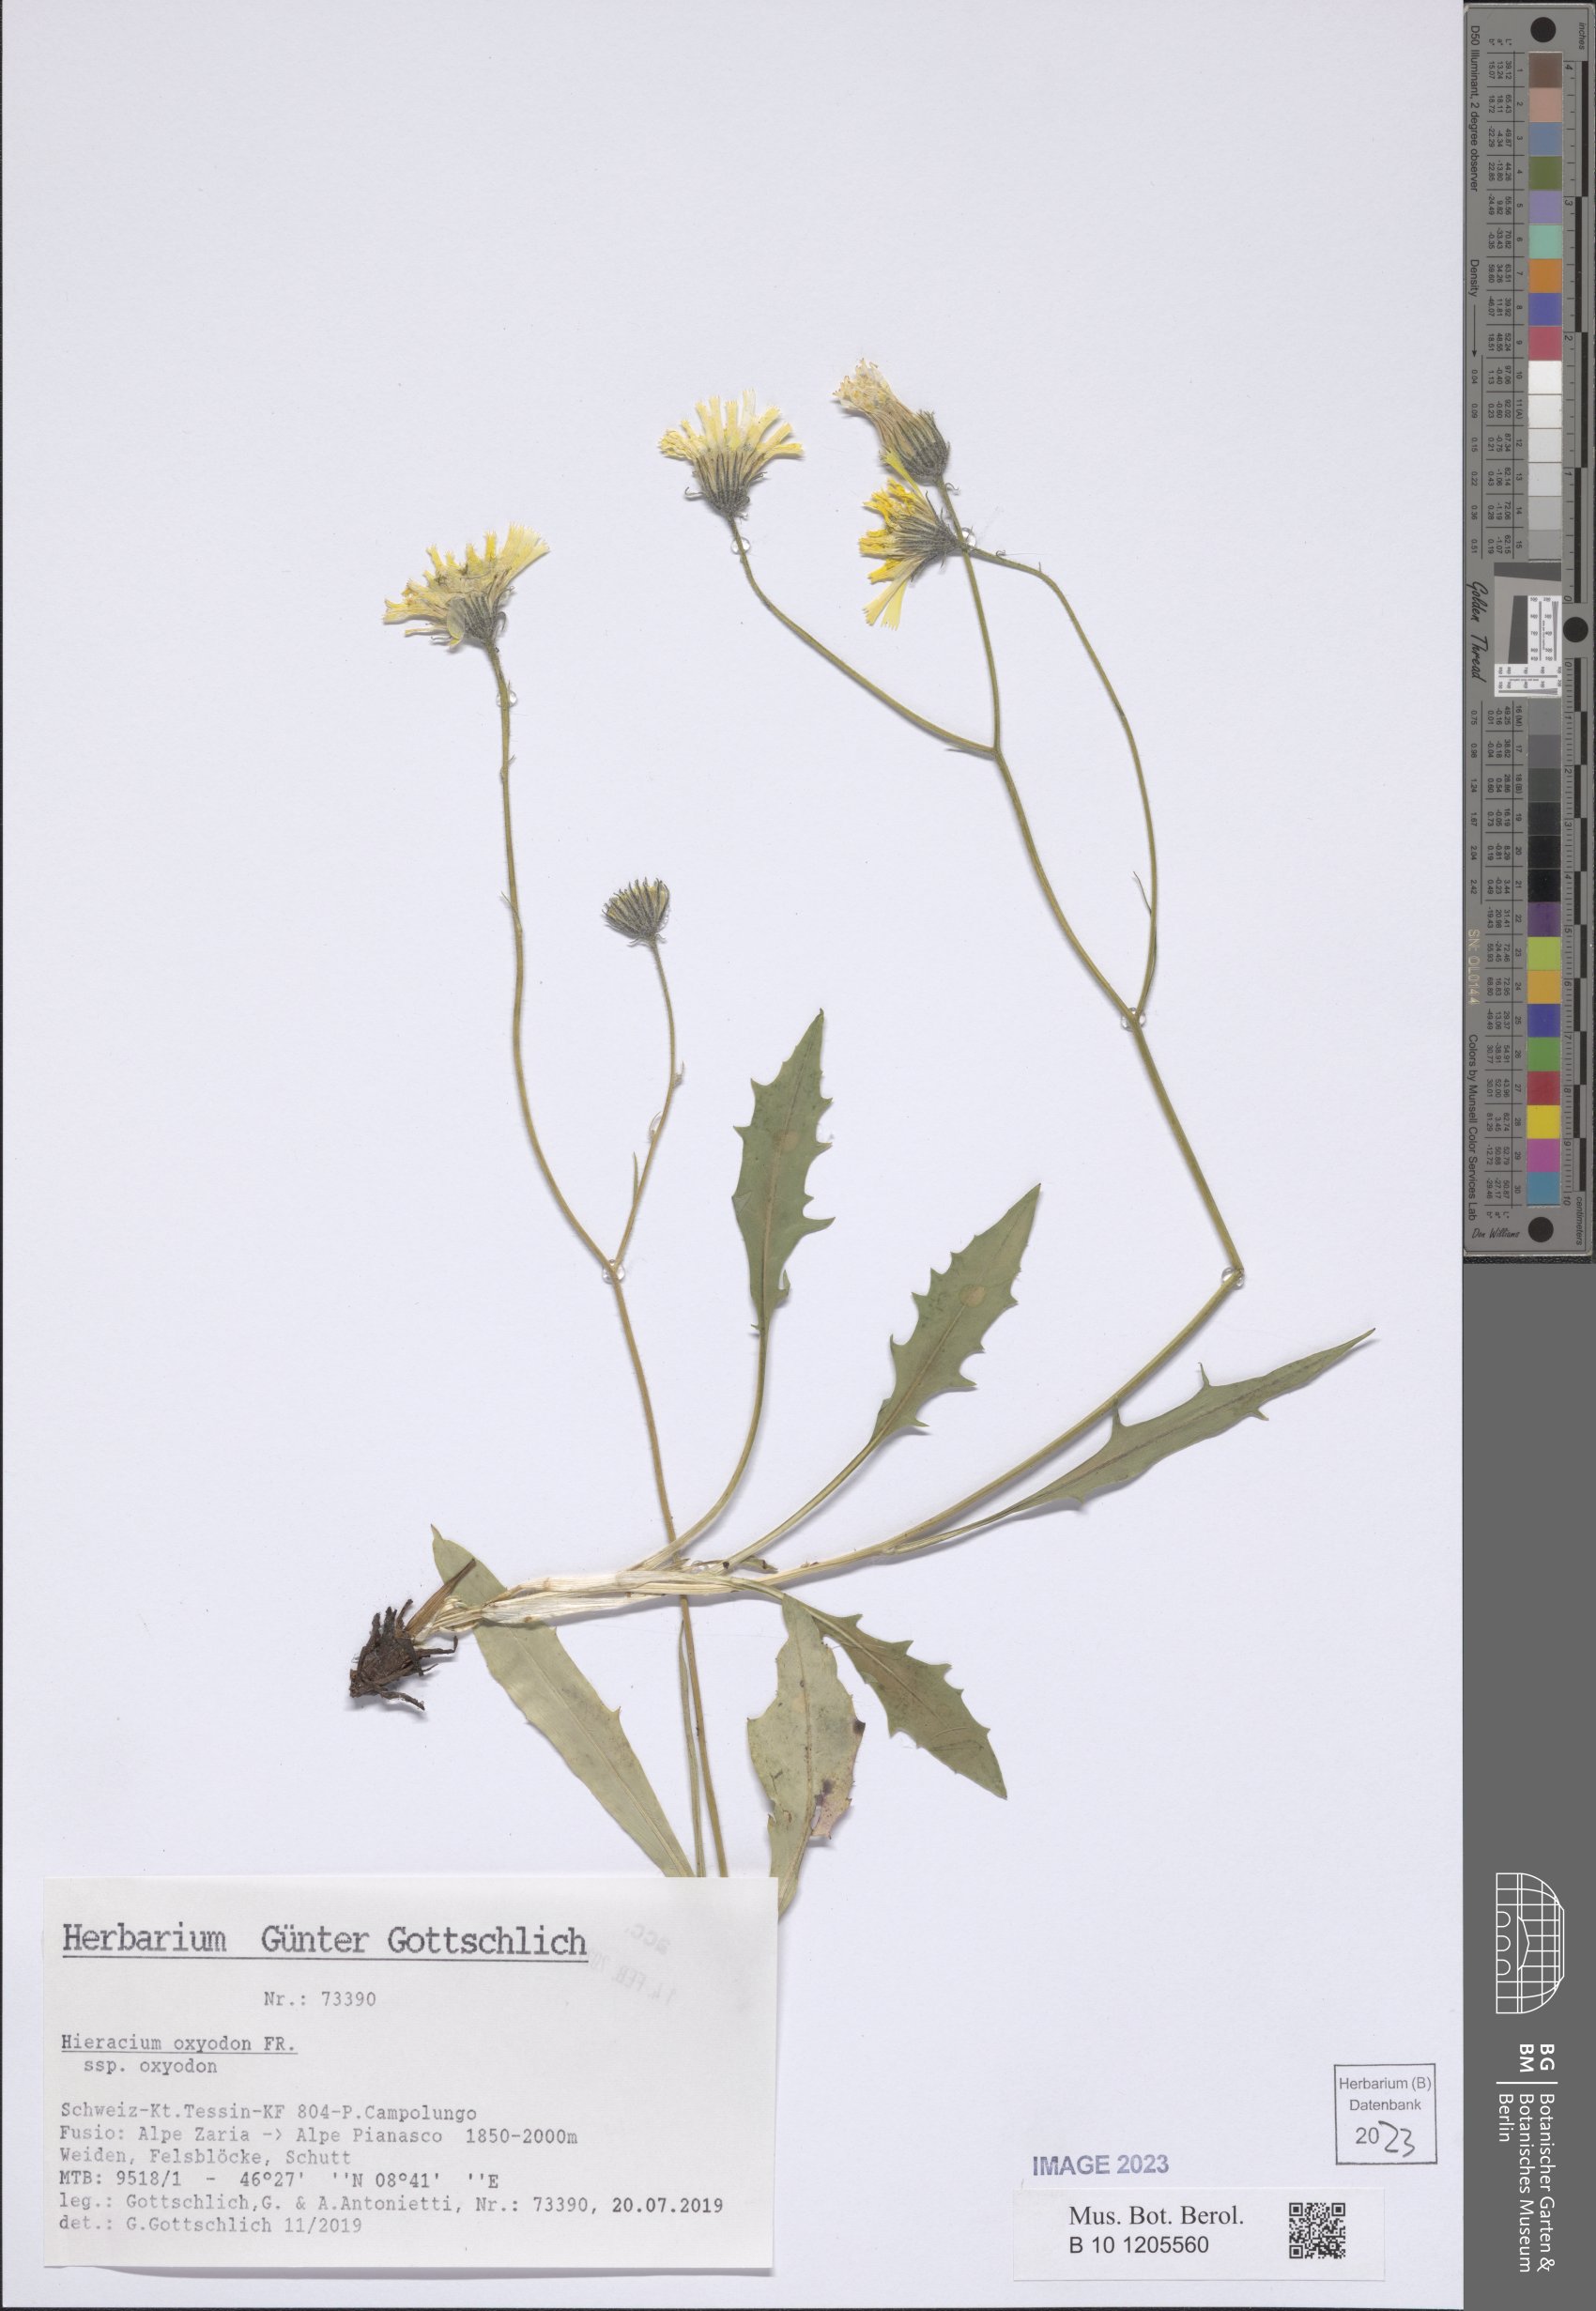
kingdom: Plantae
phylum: Tracheophyta
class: Magnoliopsida
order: Asterales
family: Asteraceae
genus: Hieracium
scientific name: Hieracium oxyodon
